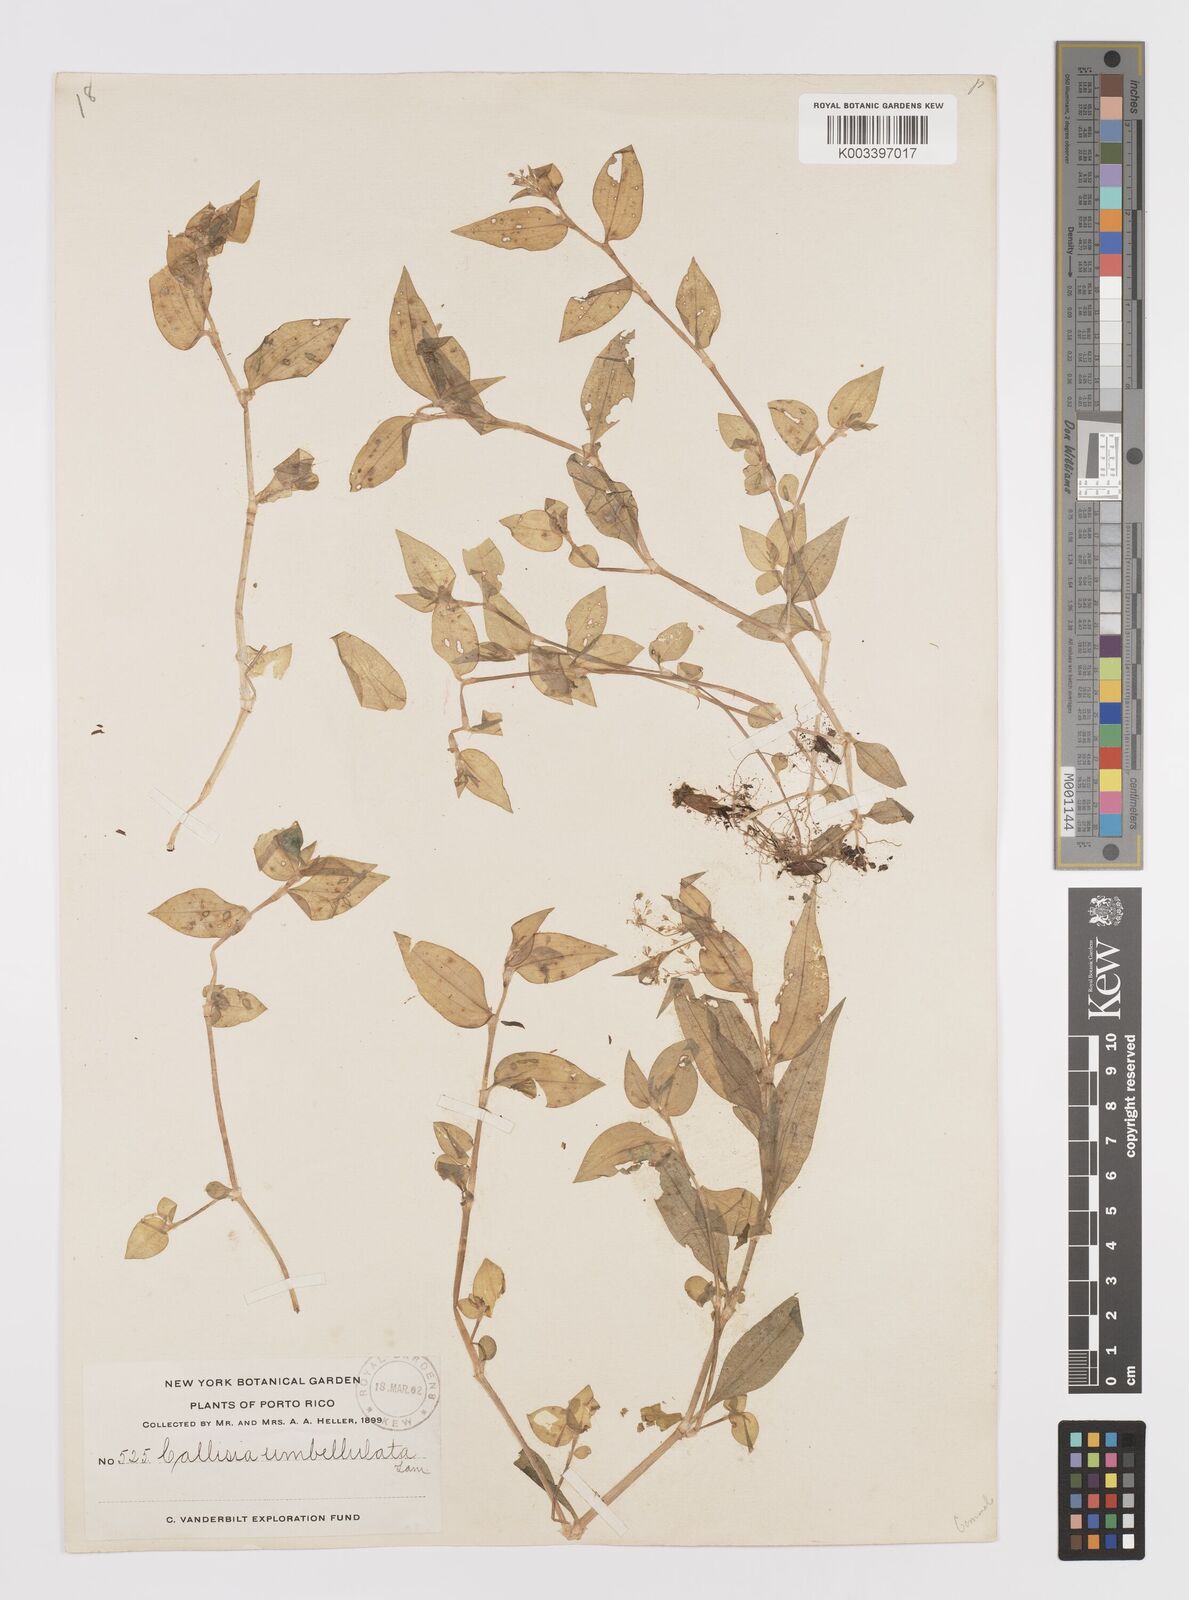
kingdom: Plantae
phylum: Tracheophyta
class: Liliopsida
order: Commelinales
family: Commelinaceae
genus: Callisia
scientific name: Callisia monandra
